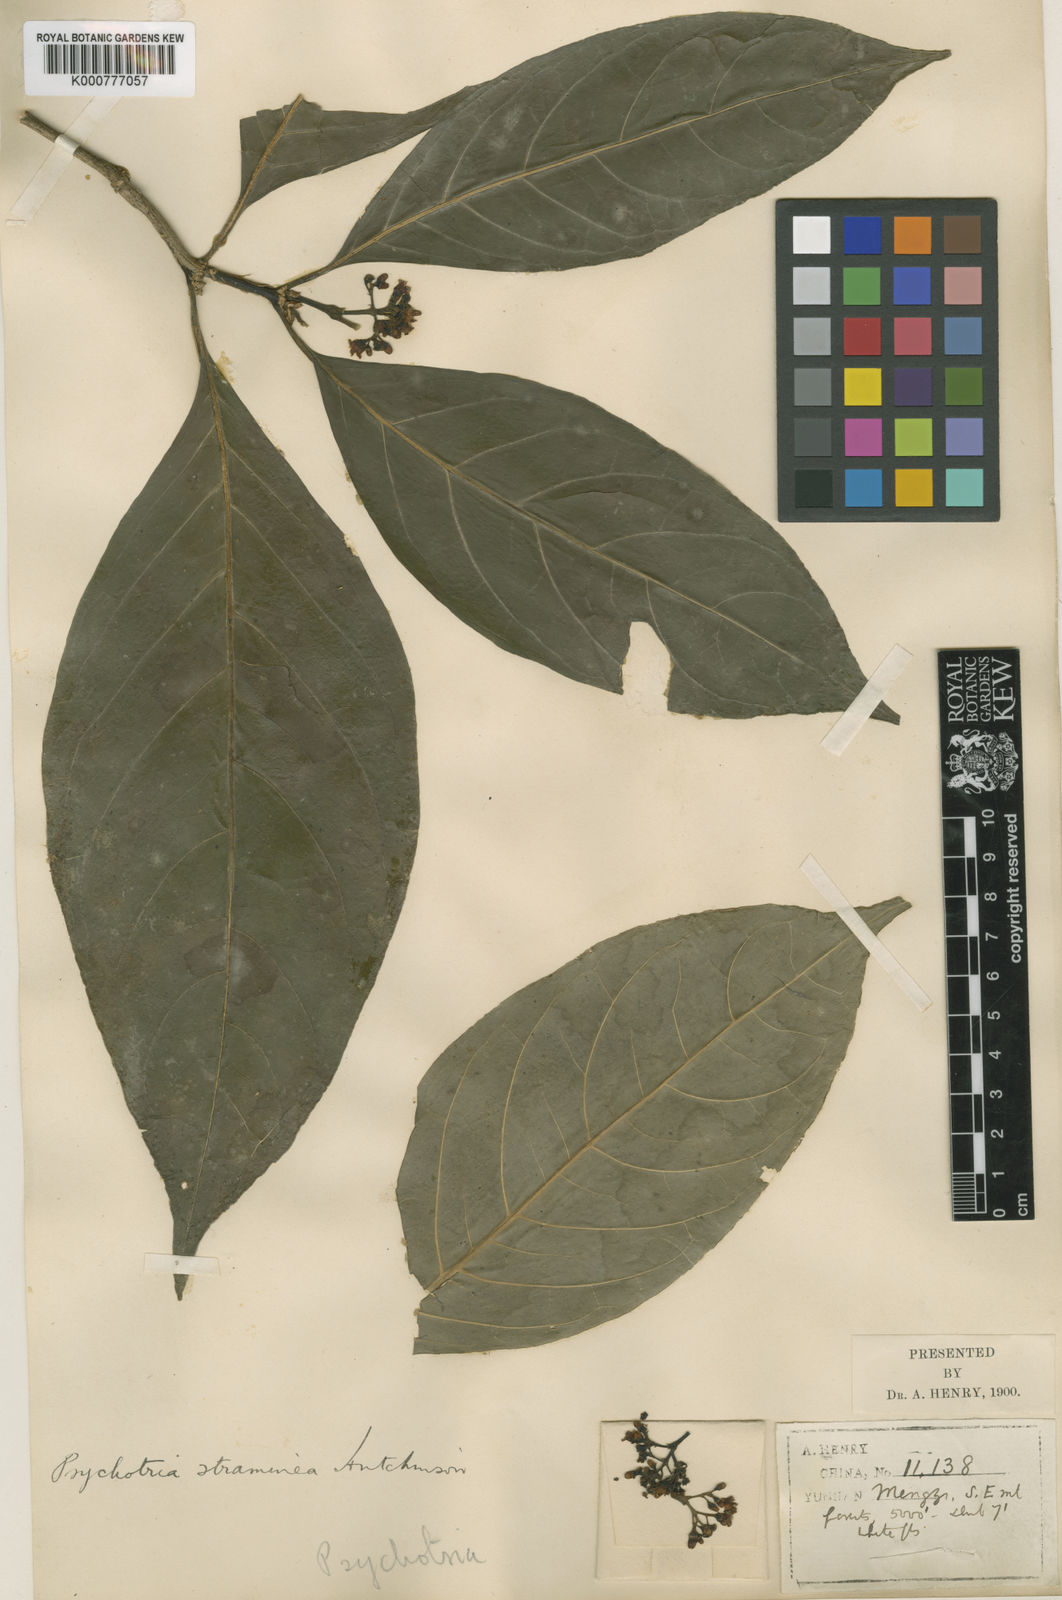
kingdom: Plantae
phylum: Tracheophyta
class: Magnoliopsida
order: Gentianales
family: Rubiaceae
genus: Eumachia
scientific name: Eumachia straminea
